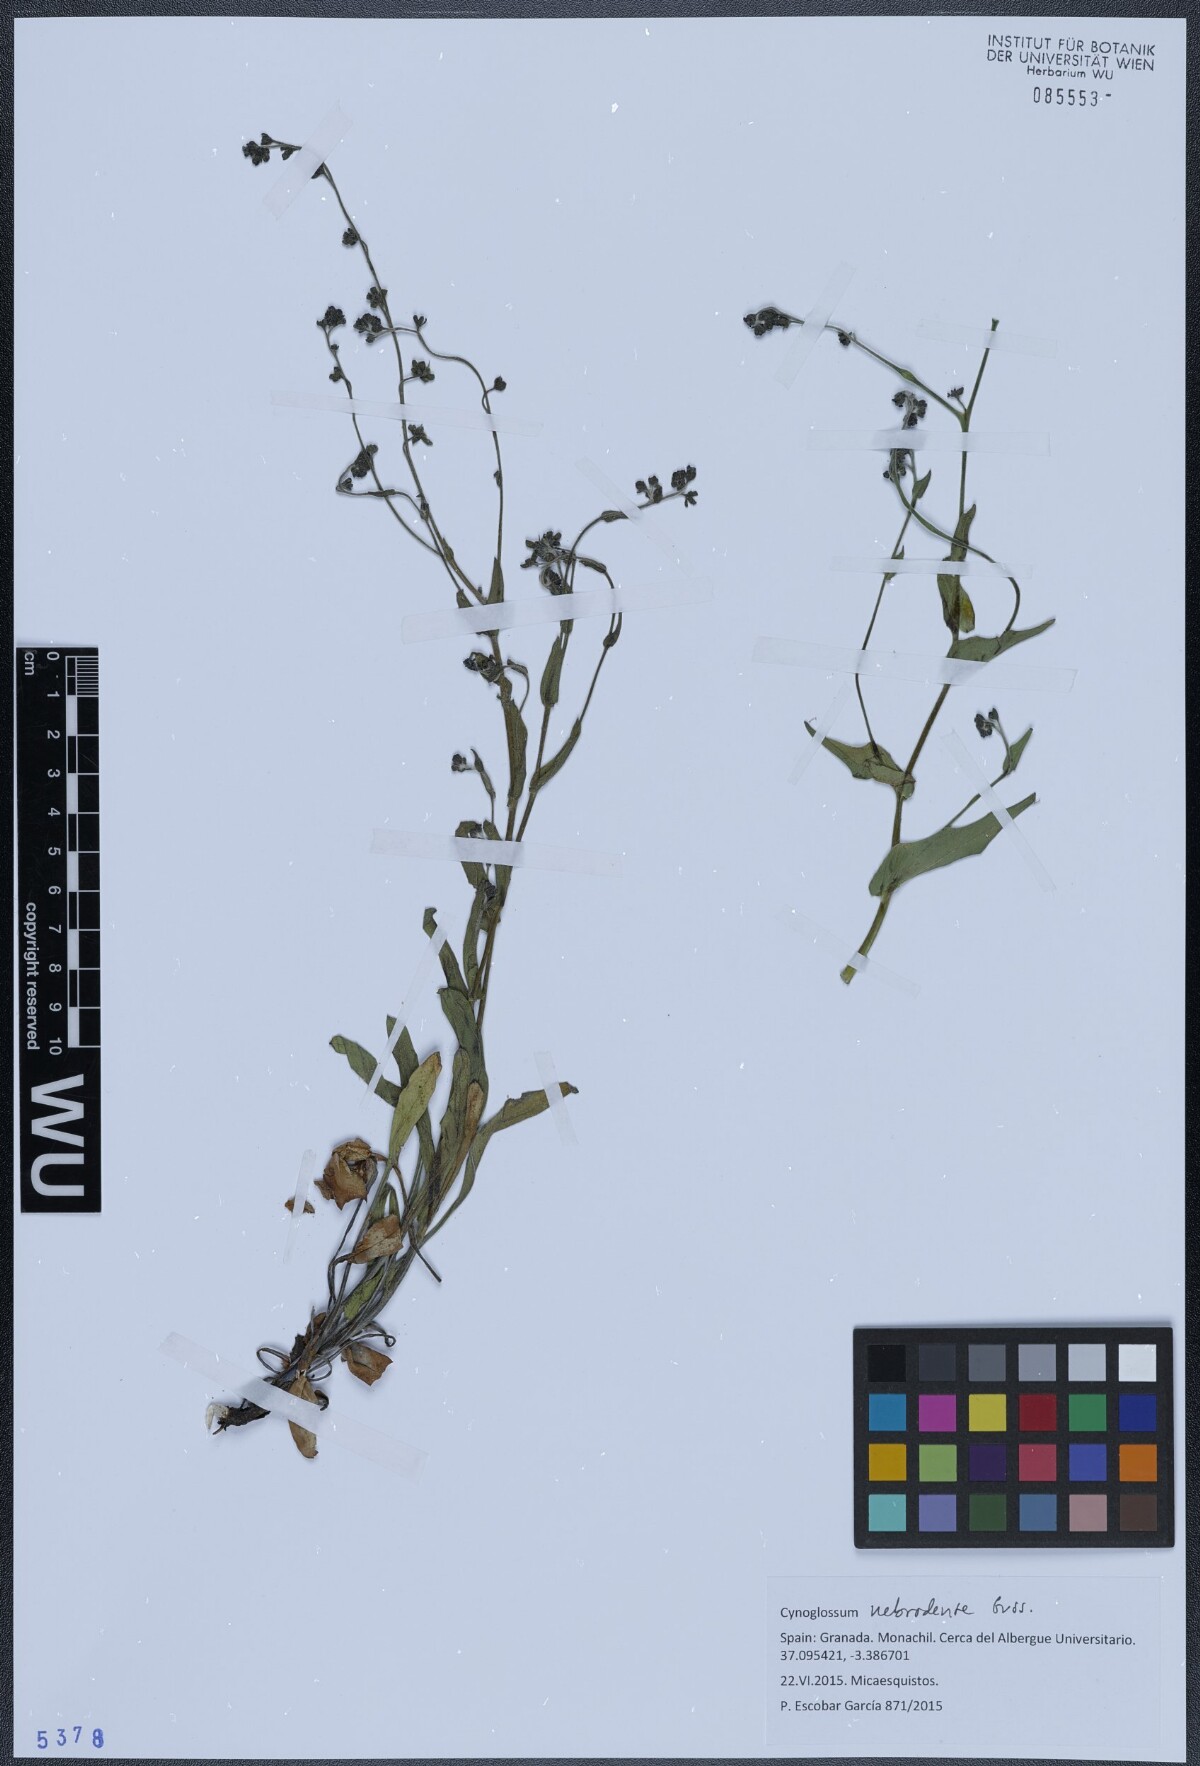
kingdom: Plantae
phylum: Tracheophyta
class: Magnoliopsida
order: Boraginales
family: Boraginaceae
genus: Cynoglossum
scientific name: Cynoglossum nebrodense
